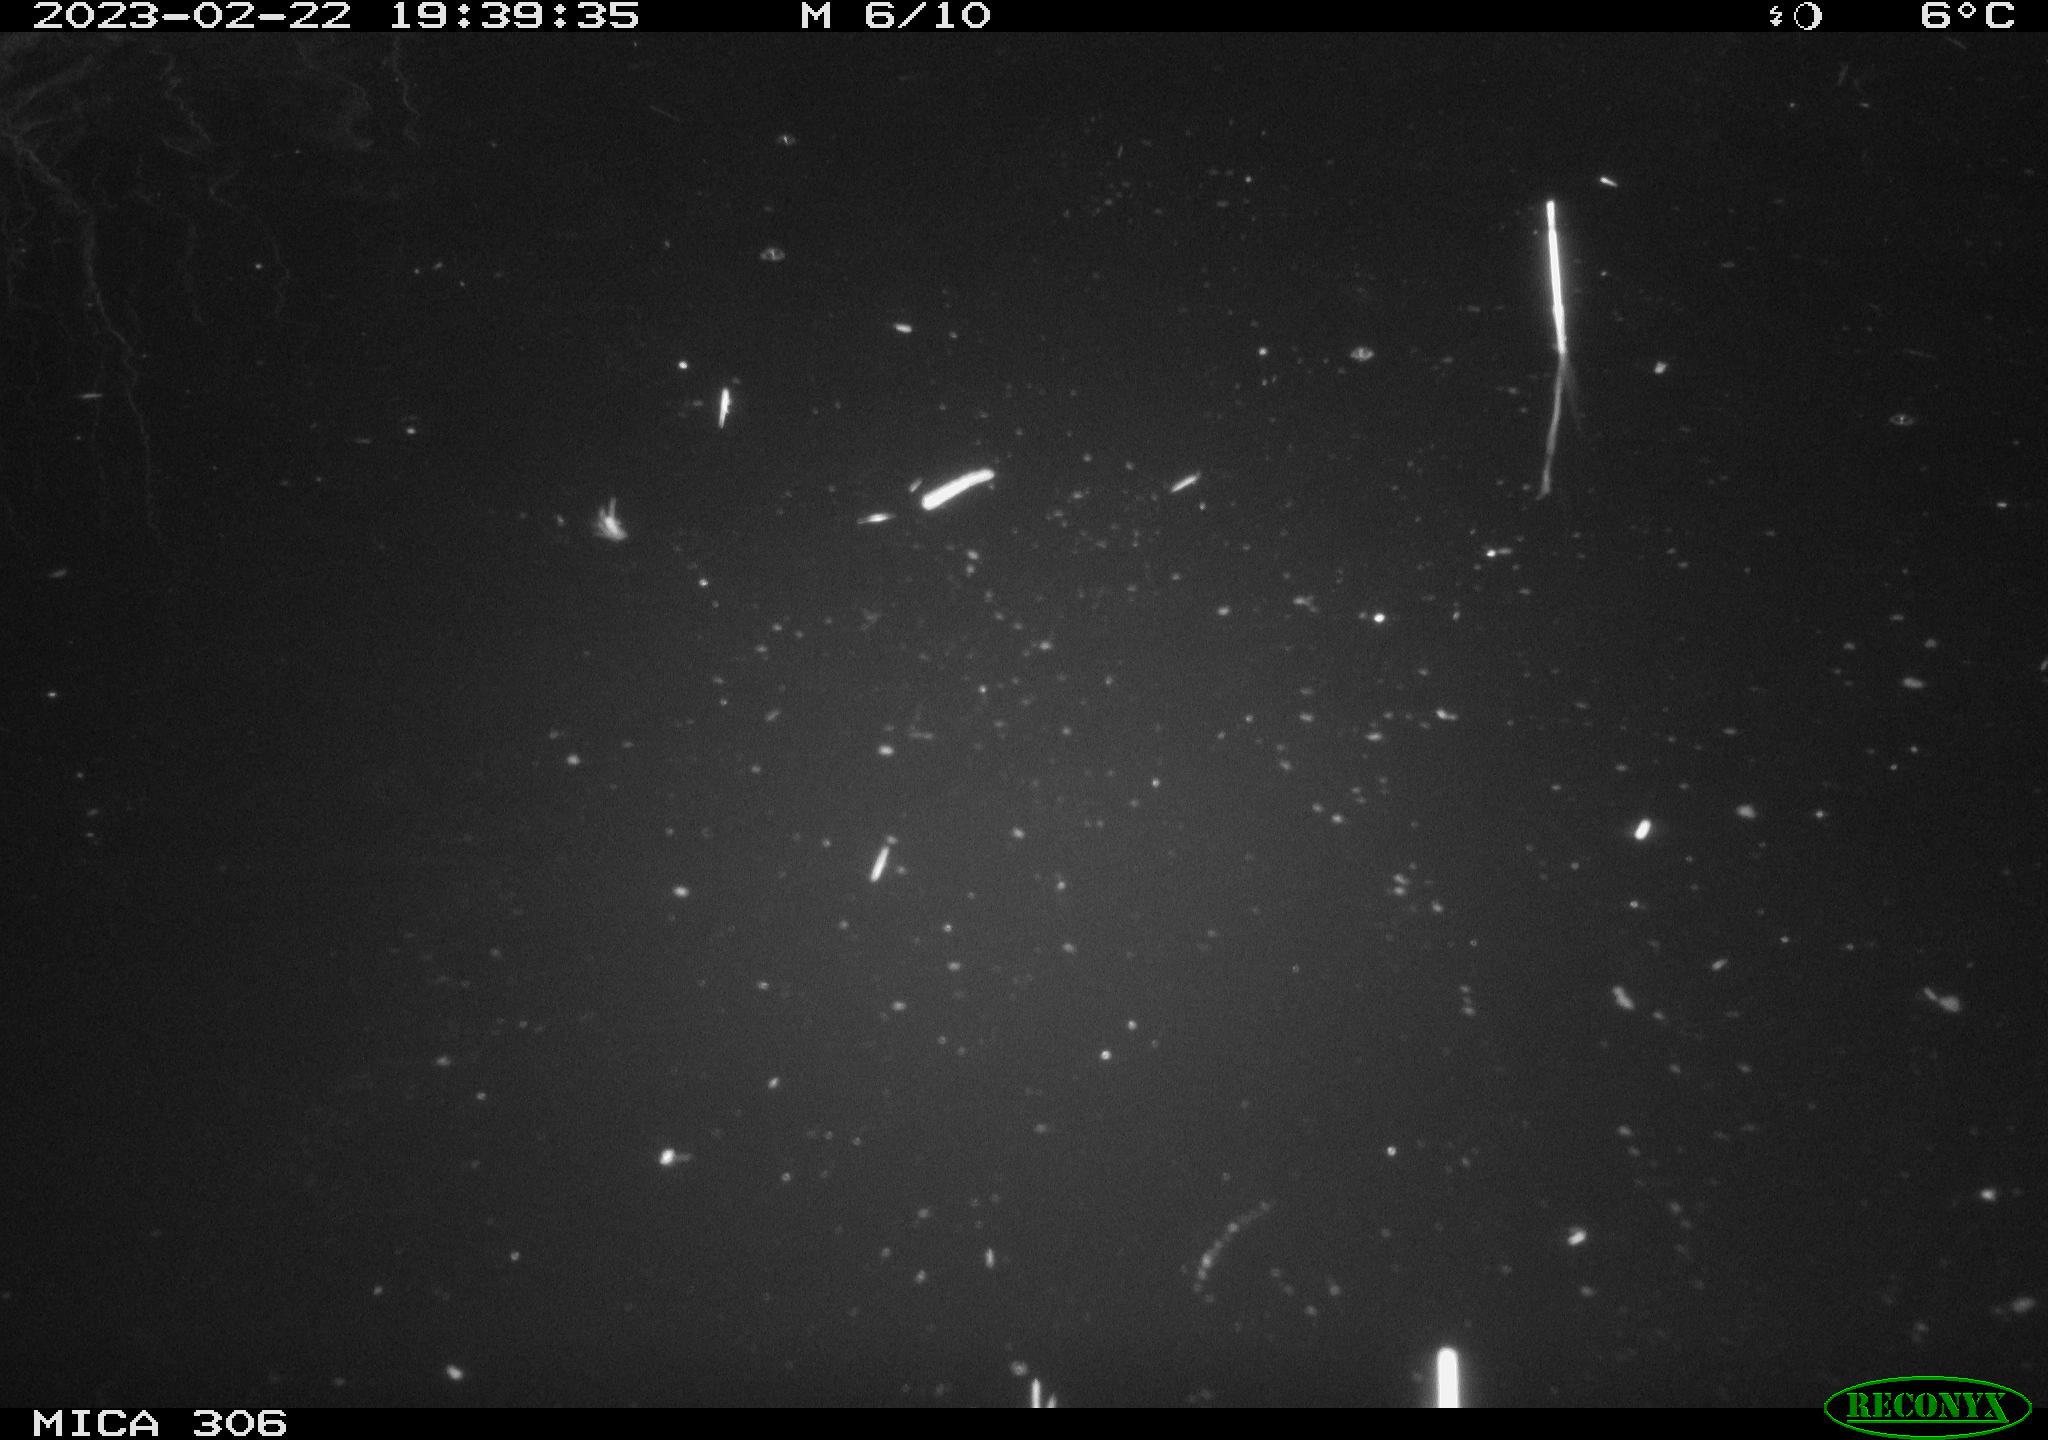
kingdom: Animalia
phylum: Chordata
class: Mammalia
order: Rodentia
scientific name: Rodentia
